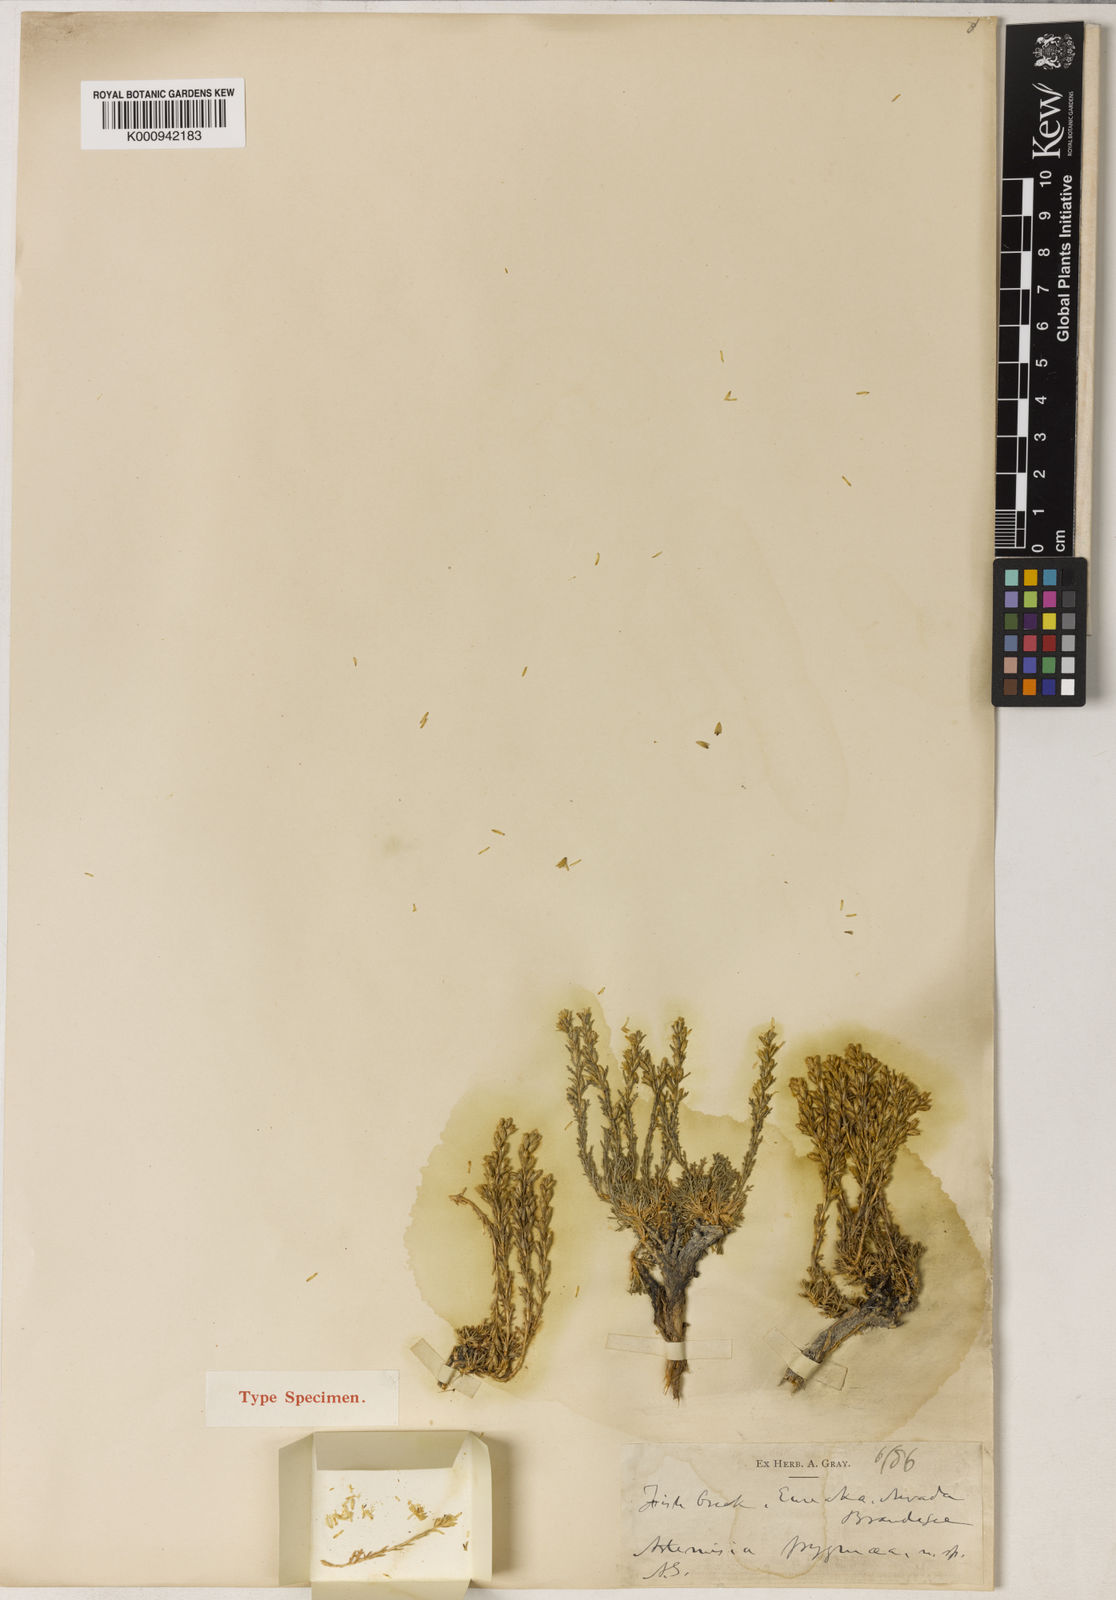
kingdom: Plantae
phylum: Tracheophyta
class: Magnoliopsida
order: Asterales
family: Asteraceae
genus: Artemisia
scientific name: Artemisia pygmaea
